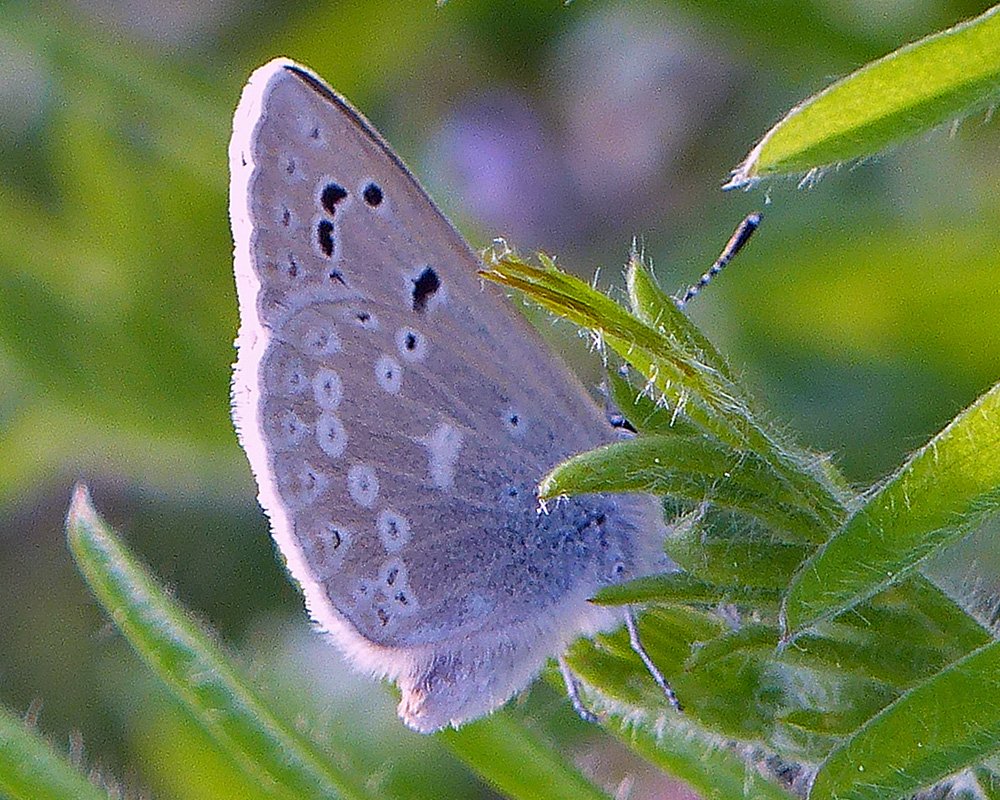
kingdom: Animalia
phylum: Arthropoda
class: Insecta
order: Lepidoptera
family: Lycaenidae
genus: Icaricia
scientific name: Icaricia icarioides
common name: Boisduval's Blue
